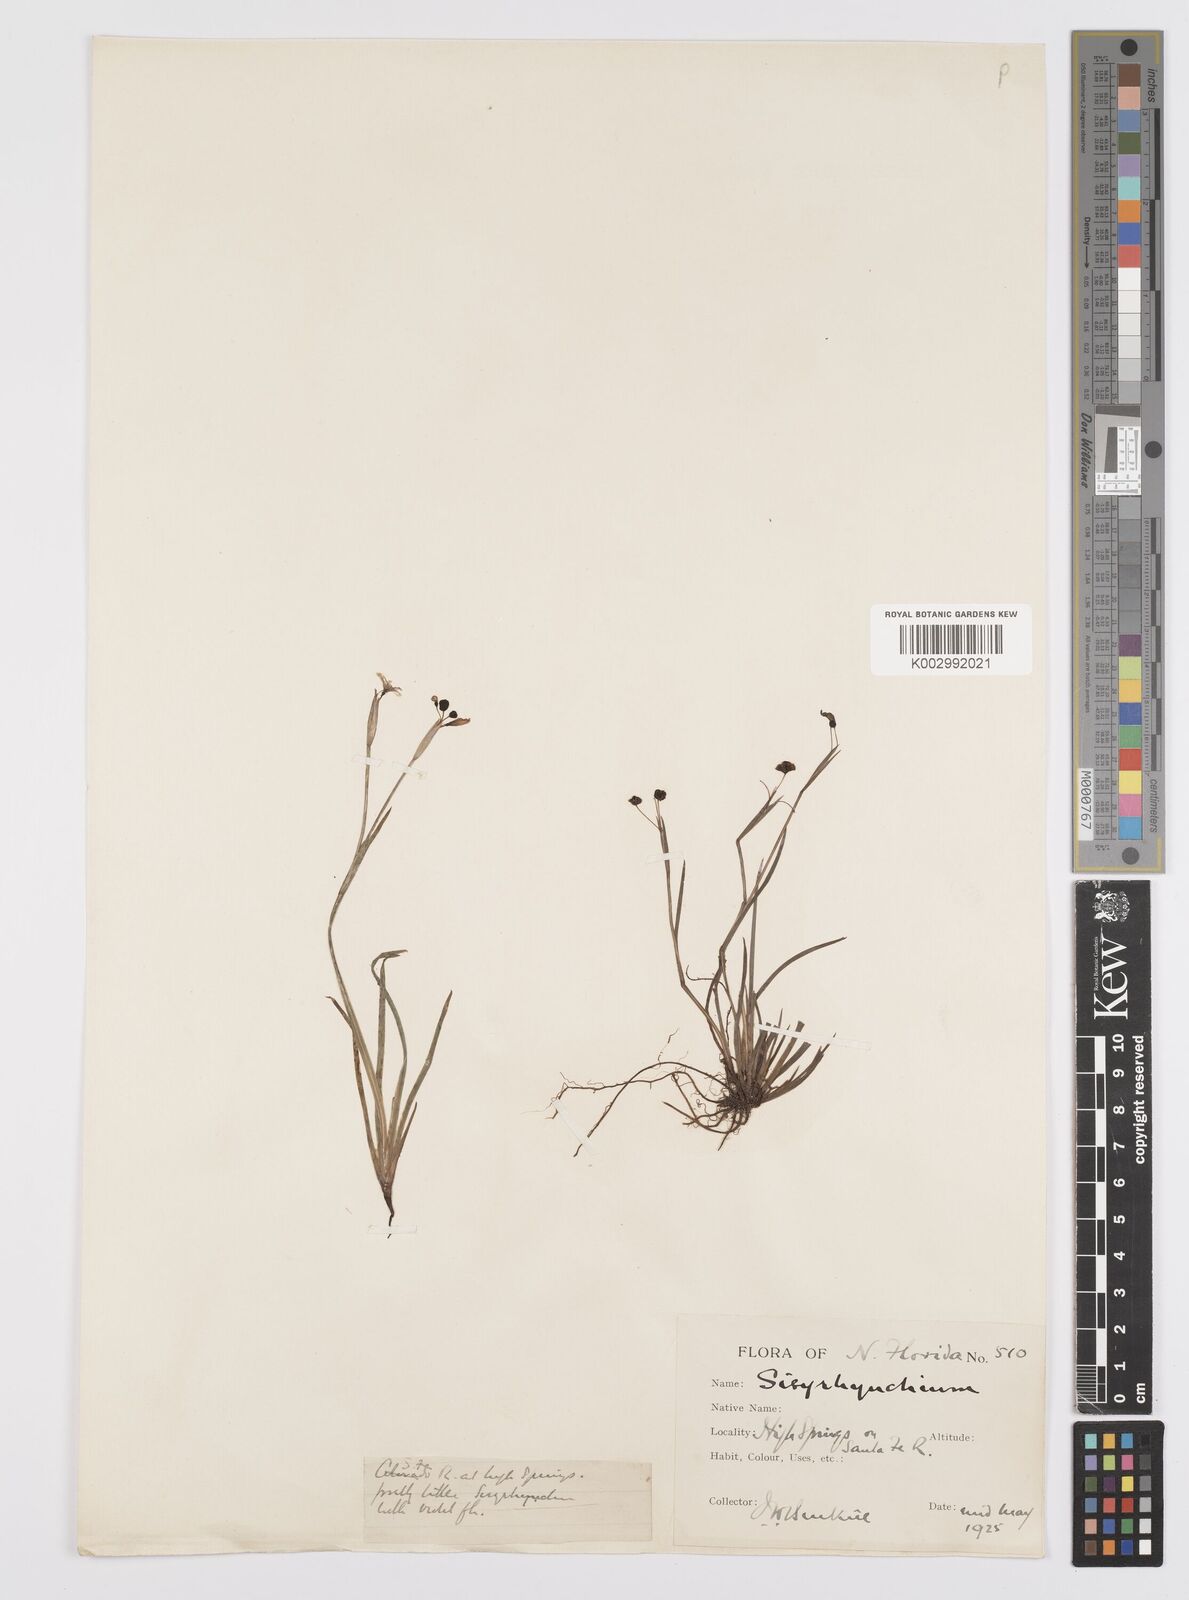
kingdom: Plantae
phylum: Tracheophyta
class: Liliopsida
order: Asparagales
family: Iridaceae
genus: Sisyrinchium
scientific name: Sisyrinchium
